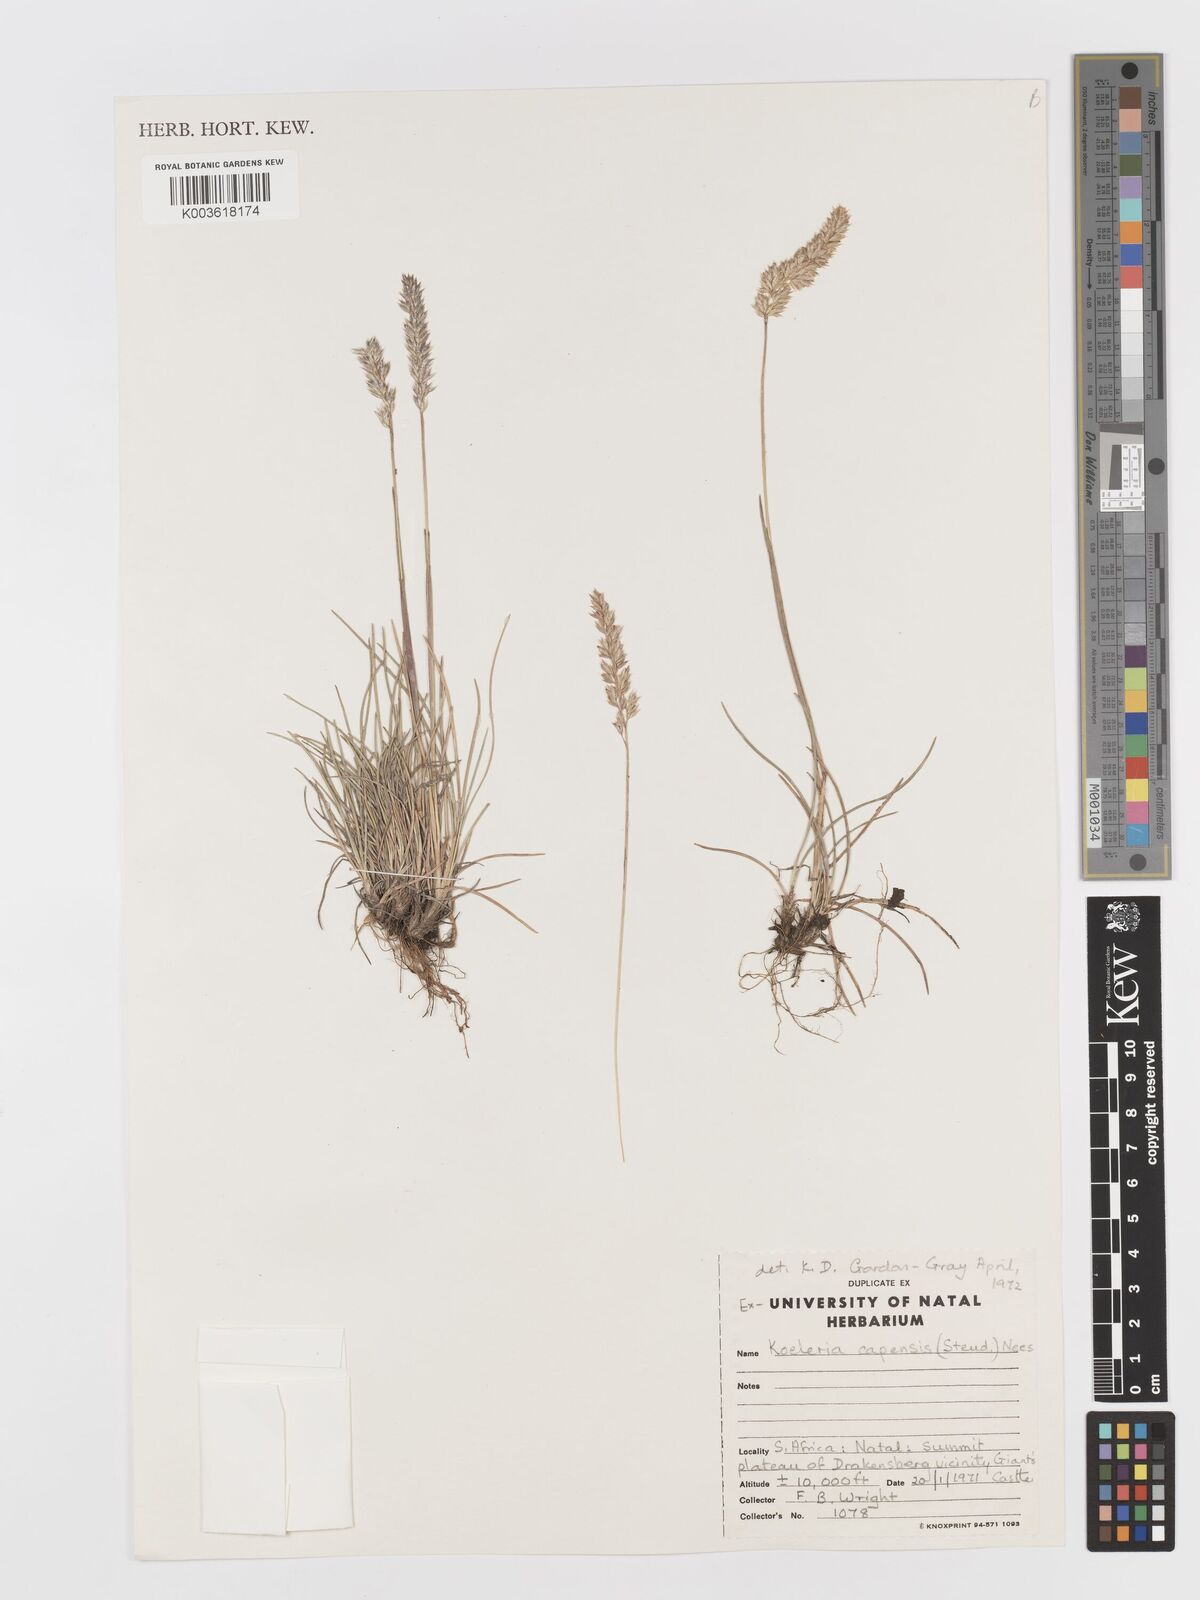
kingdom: Plantae
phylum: Tracheophyta
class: Liliopsida
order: Poales
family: Poaceae
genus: Koeleria
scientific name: Koeleria capensis
